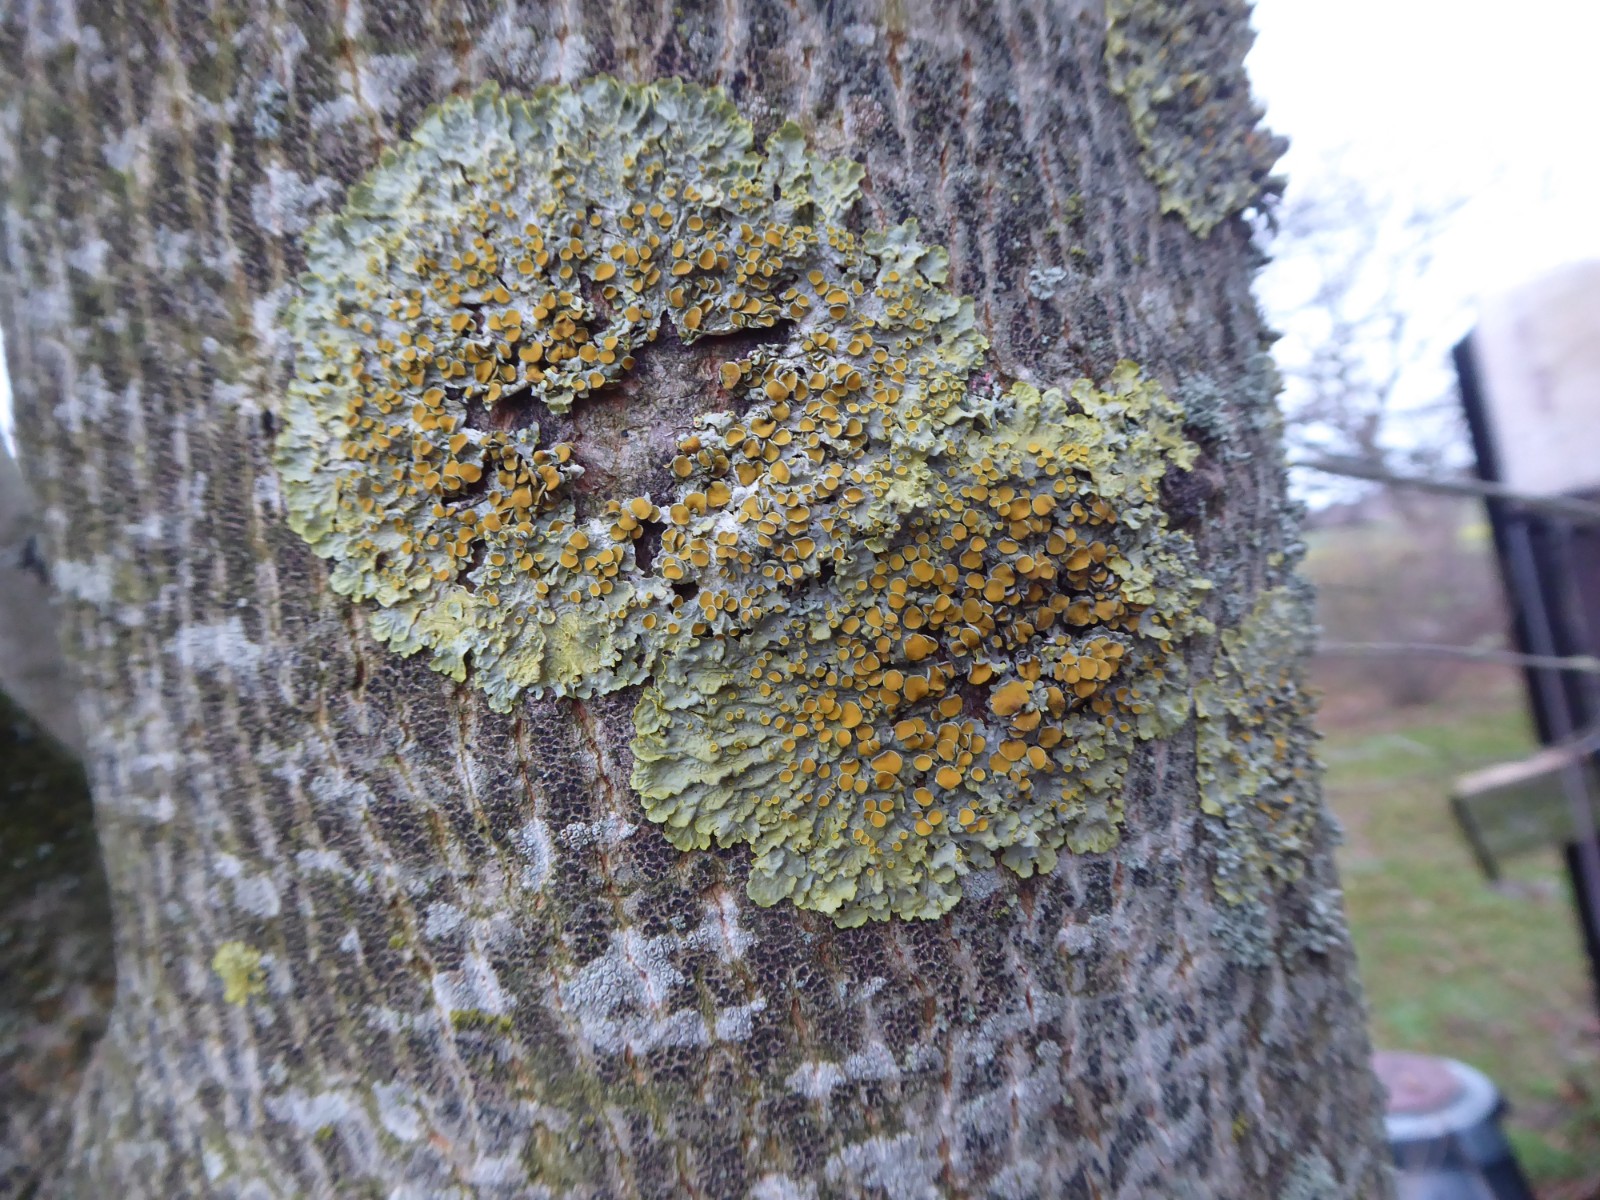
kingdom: Fungi
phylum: Ascomycota
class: Lecanoromycetes
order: Teloschistales
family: Teloschistaceae
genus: Xanthoria
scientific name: Xanthoria parietina
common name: almindelig væggelav
